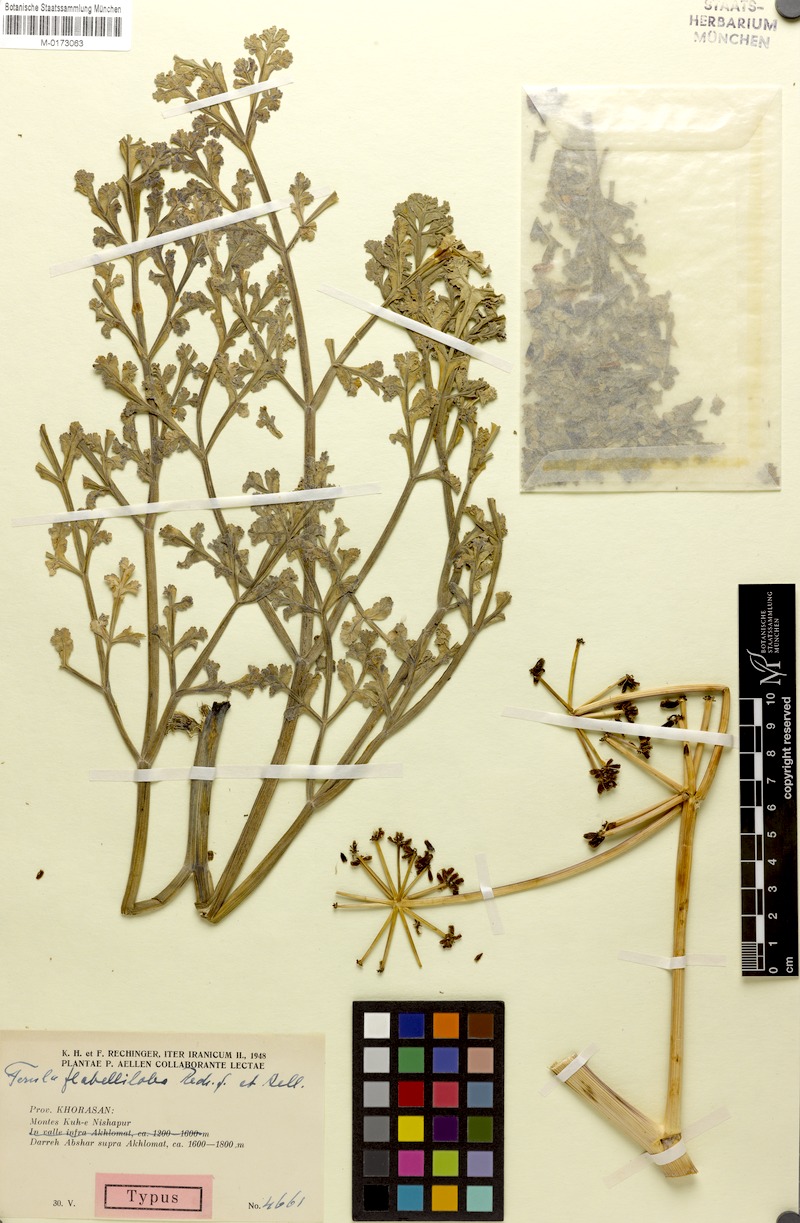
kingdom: Plantae
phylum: Tracheophyta
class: Magnoliopsida
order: Apiales
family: Apiaceae
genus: Ferula
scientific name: Ferula flabelliloba
